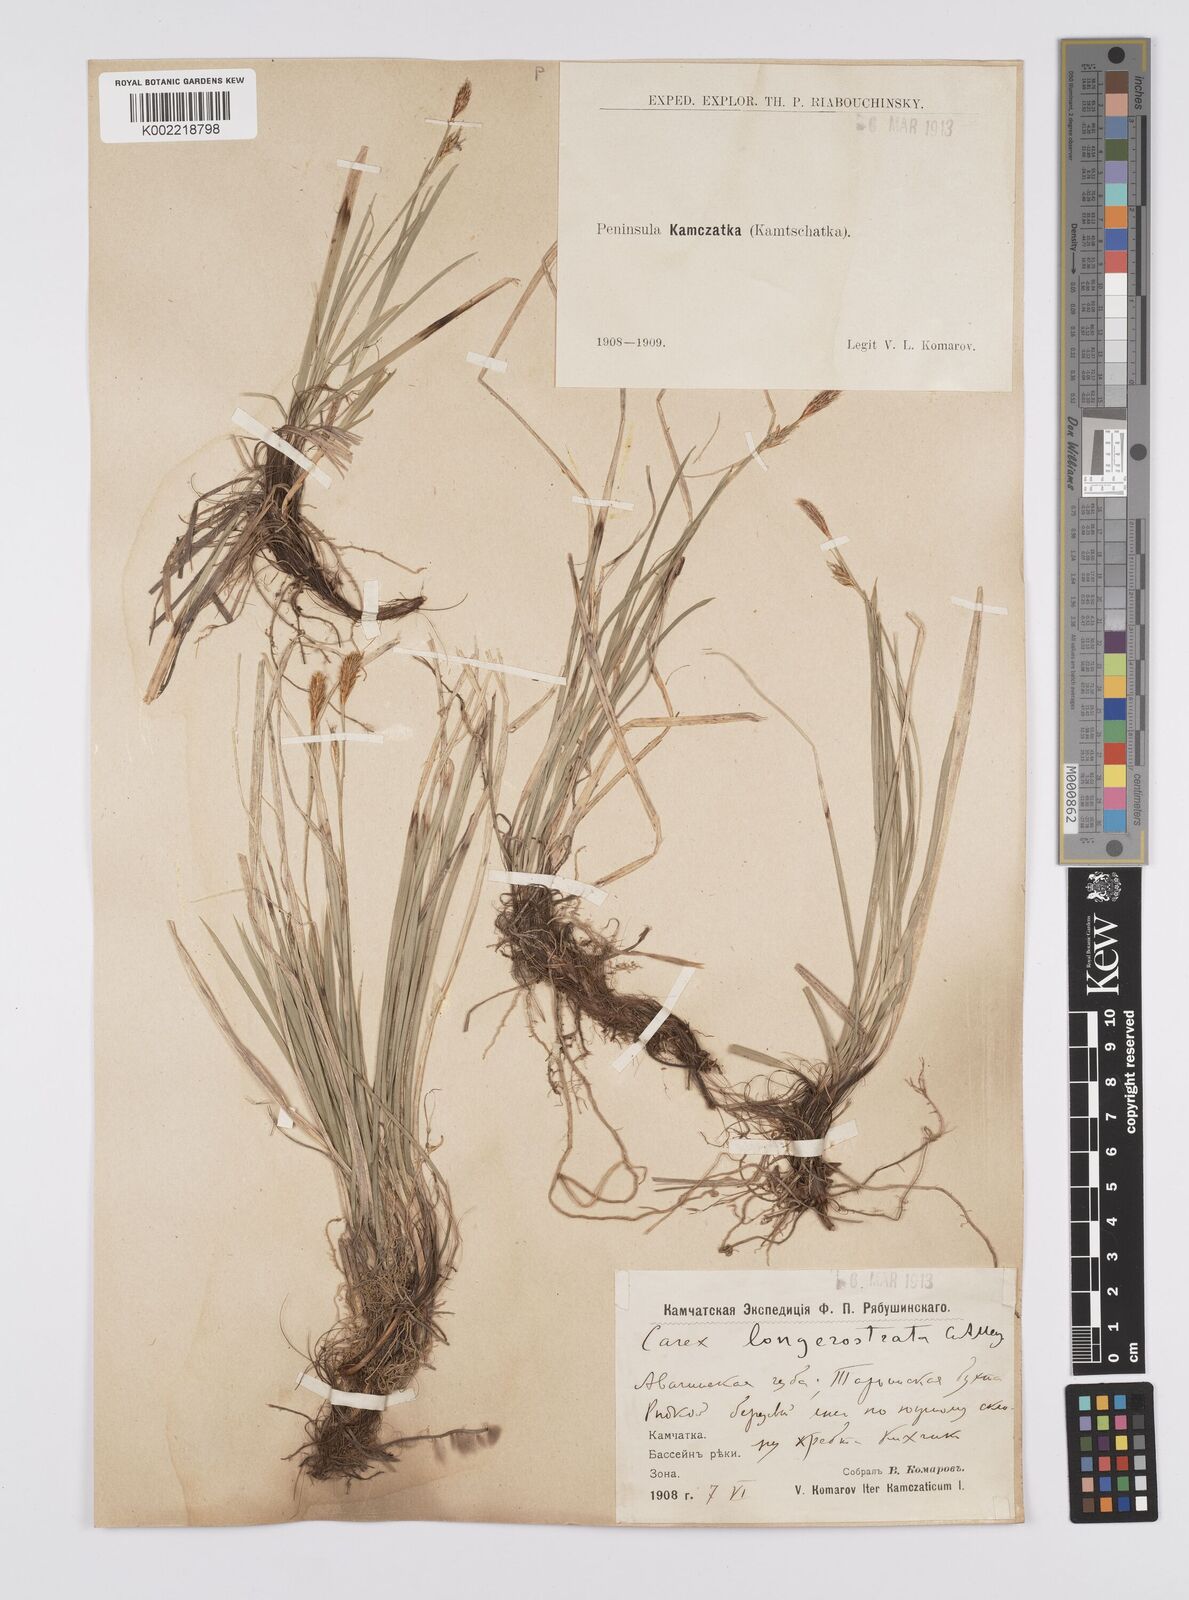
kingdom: Plantae
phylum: Tracheophyta
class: Liliopsida
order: Poales
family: Cyperaceae
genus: Carex
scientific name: Carex longerostrata
